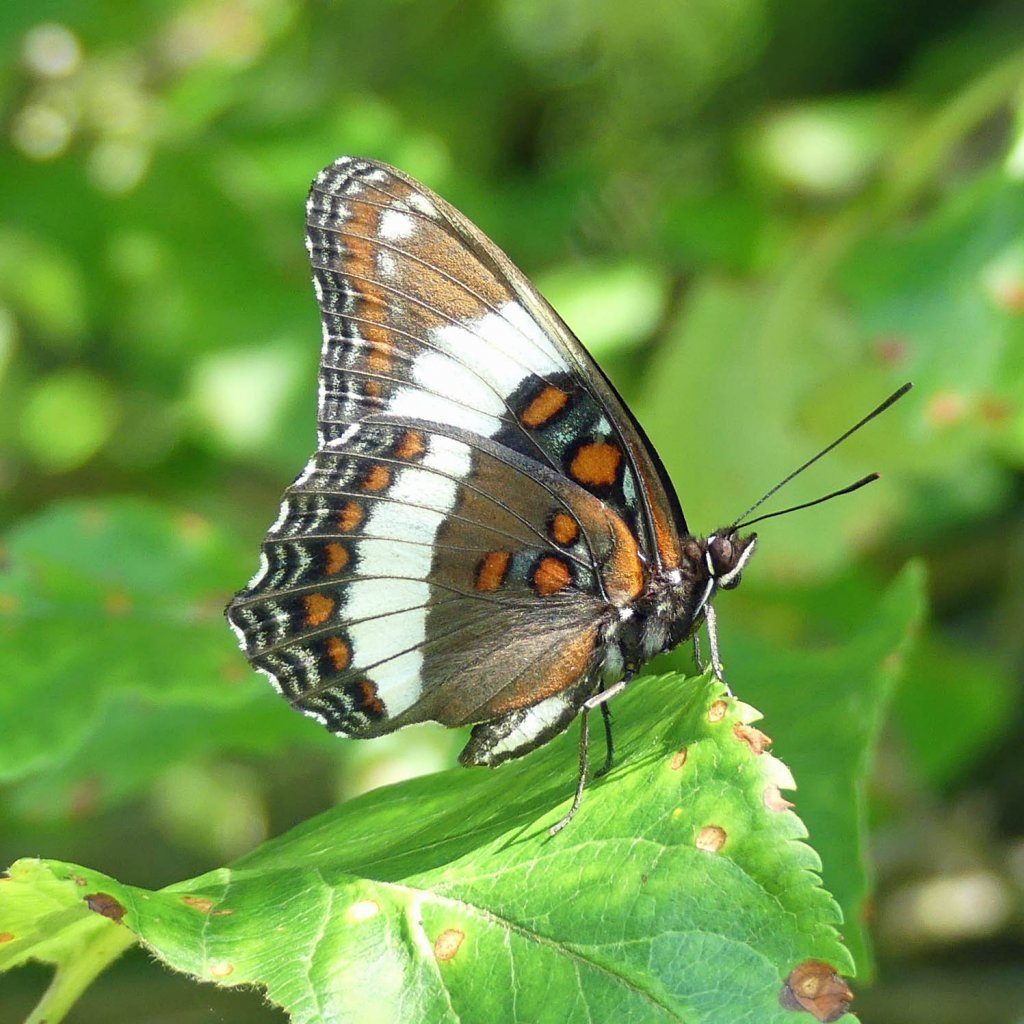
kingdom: Animalia
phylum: Arthropoda
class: Insecta
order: Lepidoptera
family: Nymphalidae
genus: Limenitis
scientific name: Limenitis arthemis
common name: Red-spotted Admiral
